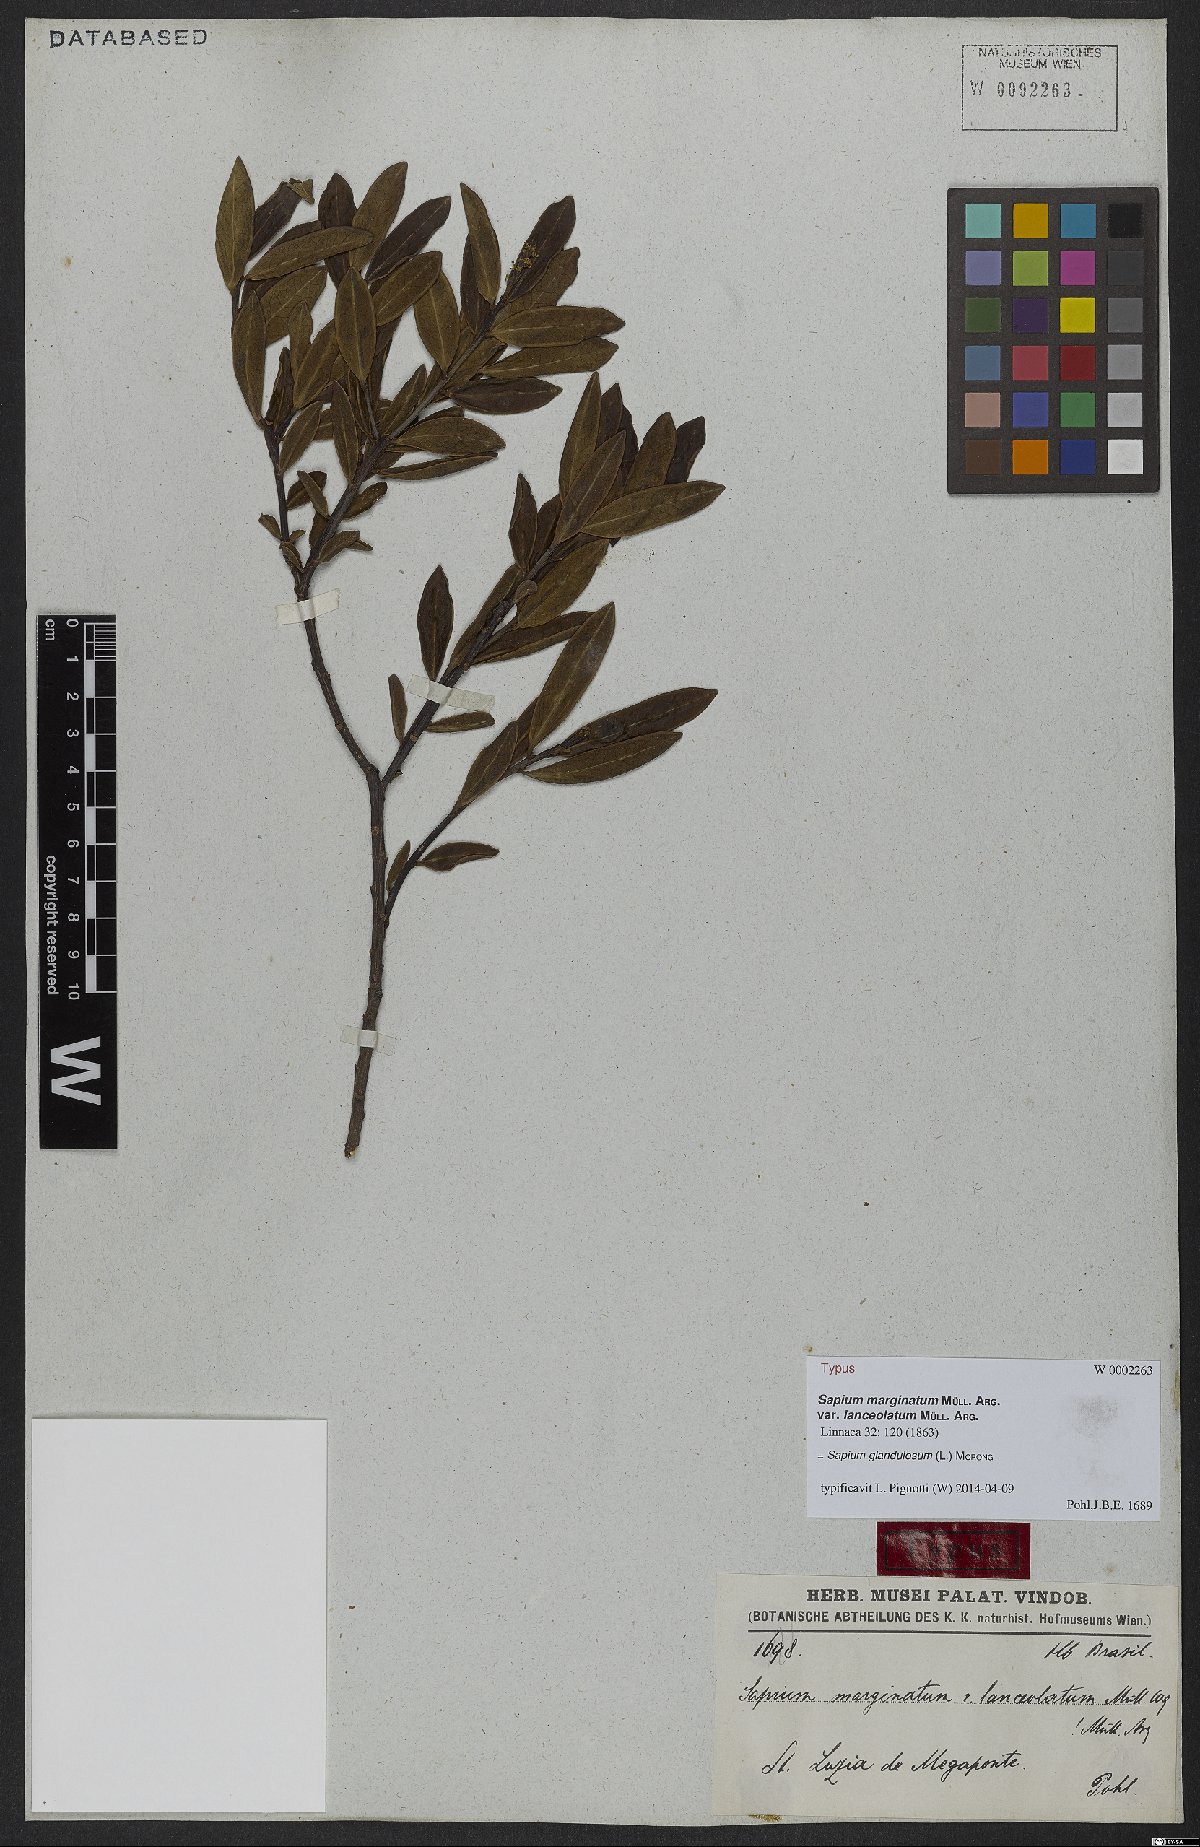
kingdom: Plantae
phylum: Tracheophyta
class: Magnoliopsida
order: Malpighiales
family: Euphorbiaceae
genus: Sapium
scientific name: Sapium glandulosum
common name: Milktree
